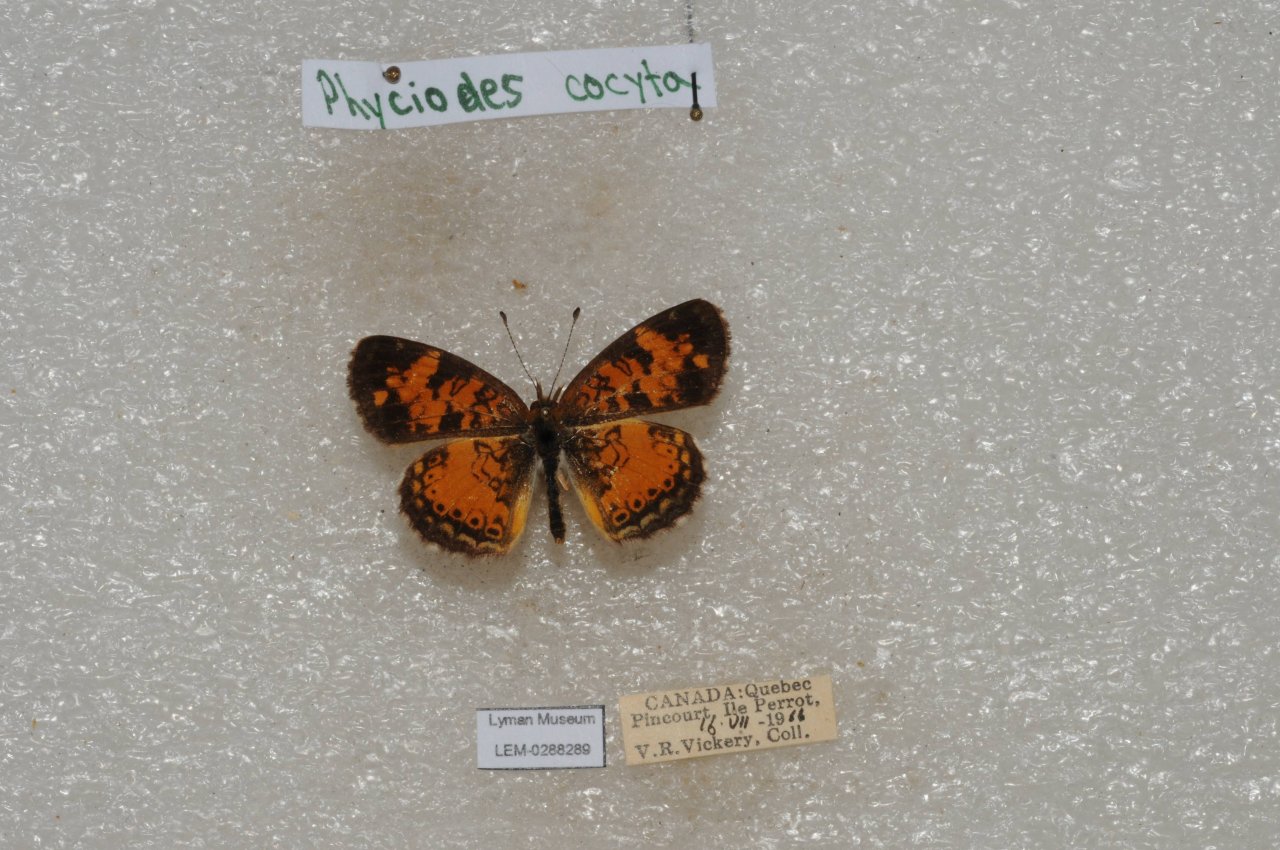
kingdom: Animalia
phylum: Arthropoda
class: Insecta
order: Lepidoptera
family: Nymphalidae
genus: Phyciodes
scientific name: Phyciodes tharos
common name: Northern Crescent
